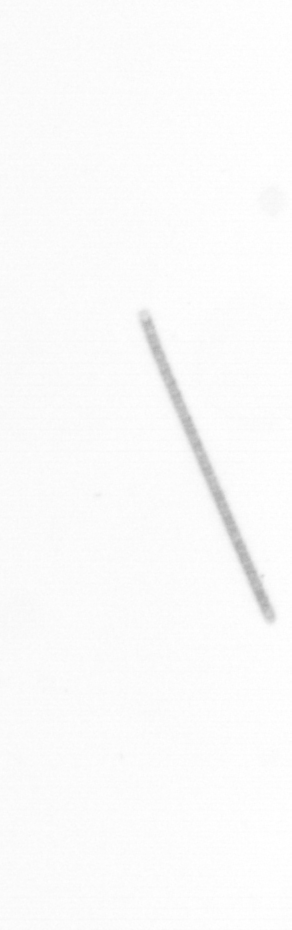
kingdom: Chromista
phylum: Ochrophyta
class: Bacillariophyceae
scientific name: Bacillariophyceae
